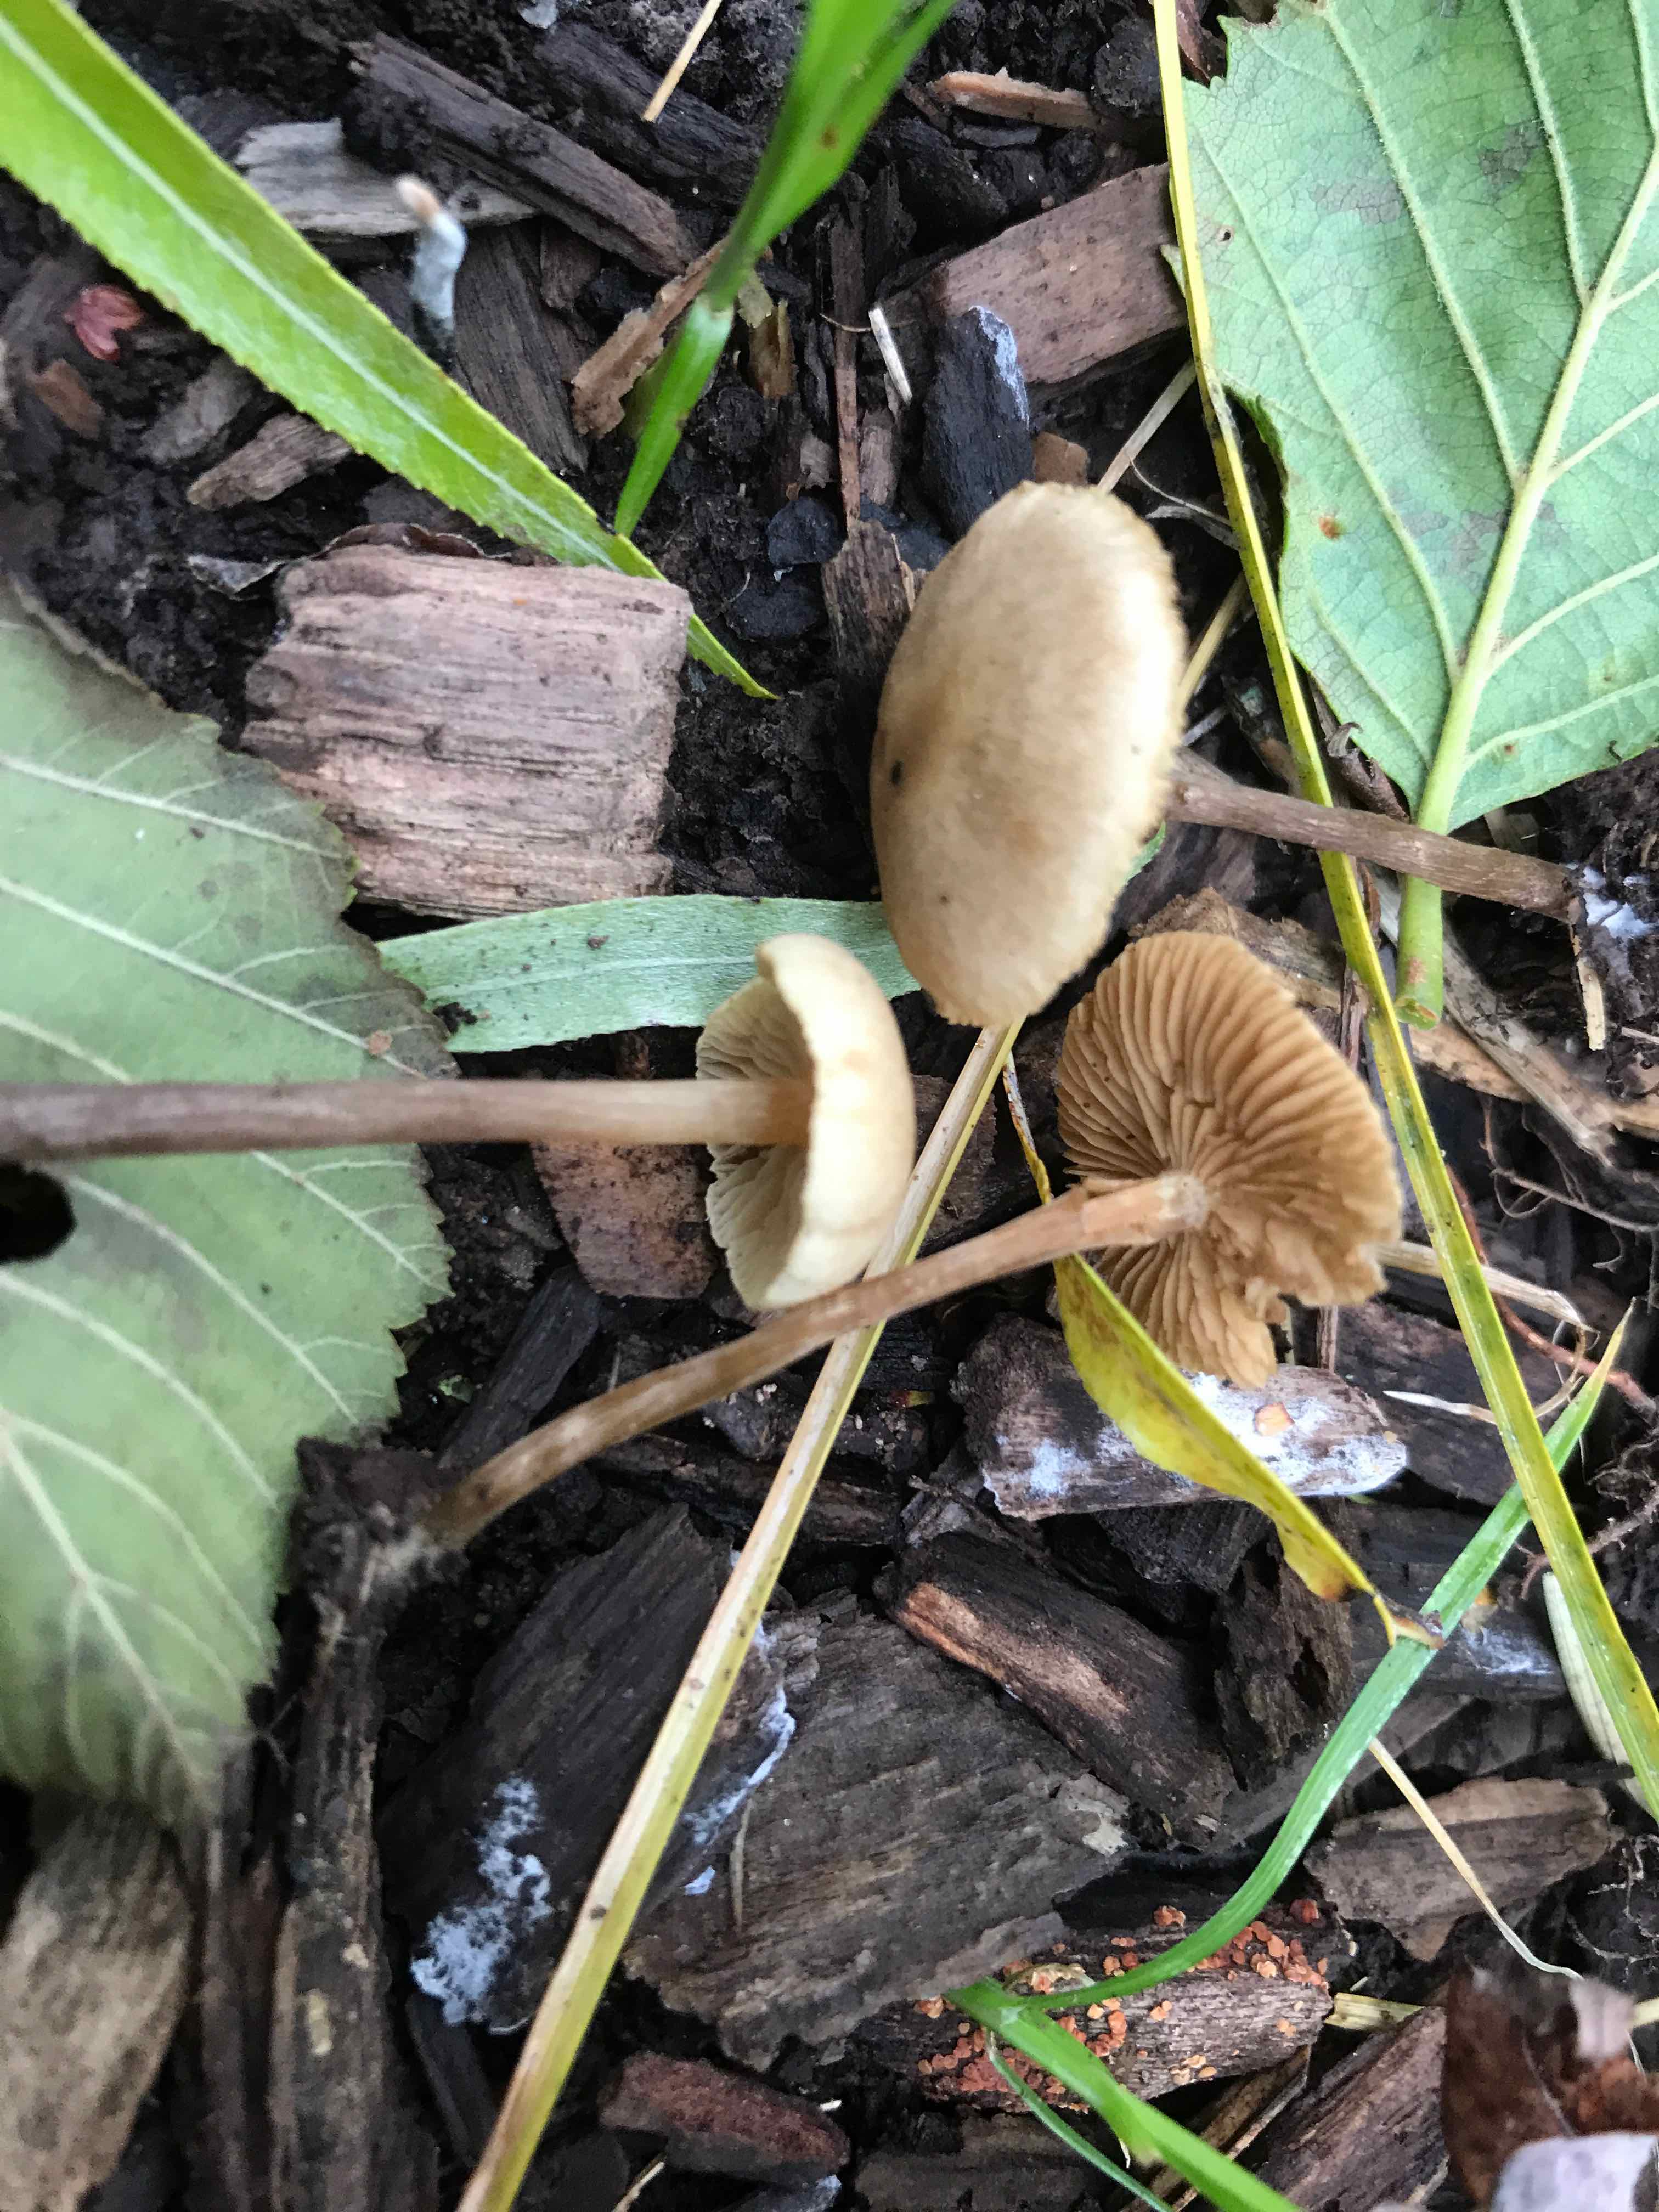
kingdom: Fungi
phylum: Basidiomycota
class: Agaricomycetes
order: Agaricales
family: Hymenogastraceae
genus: Naucoria
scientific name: Naucoria escharioides
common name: lys elle-knaphat
